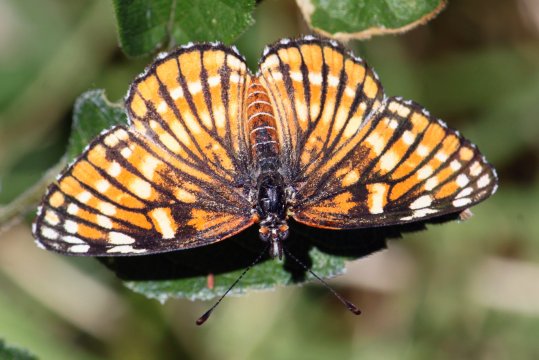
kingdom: Animalia
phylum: Arthropoda
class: Insecta
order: Lepidoptera
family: Nymphalidae
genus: Thessalia
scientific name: Thessalia leanira
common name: Fulvia Checkerspot
